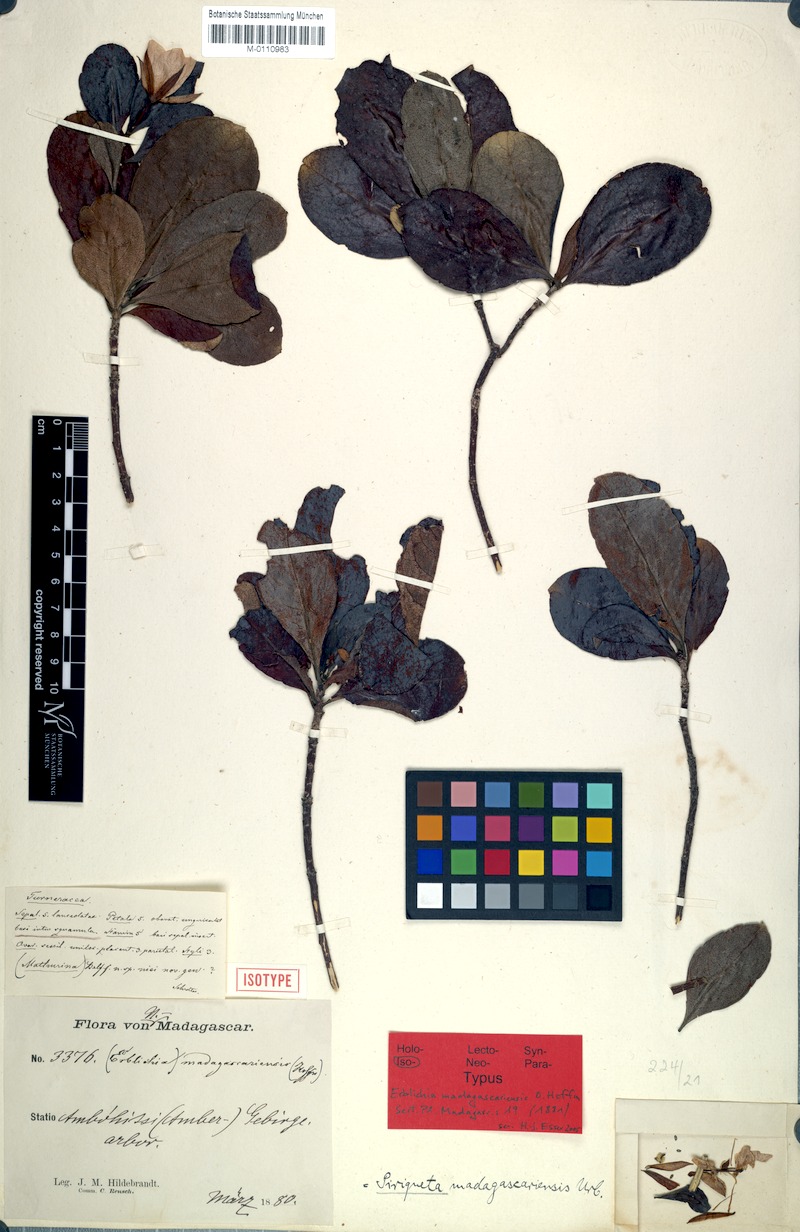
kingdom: Plantae
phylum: Tracheophyta
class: Magnoliopsida
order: Malpighiales
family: Turneraceae
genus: Arboa
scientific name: Arboa madagascariensis
